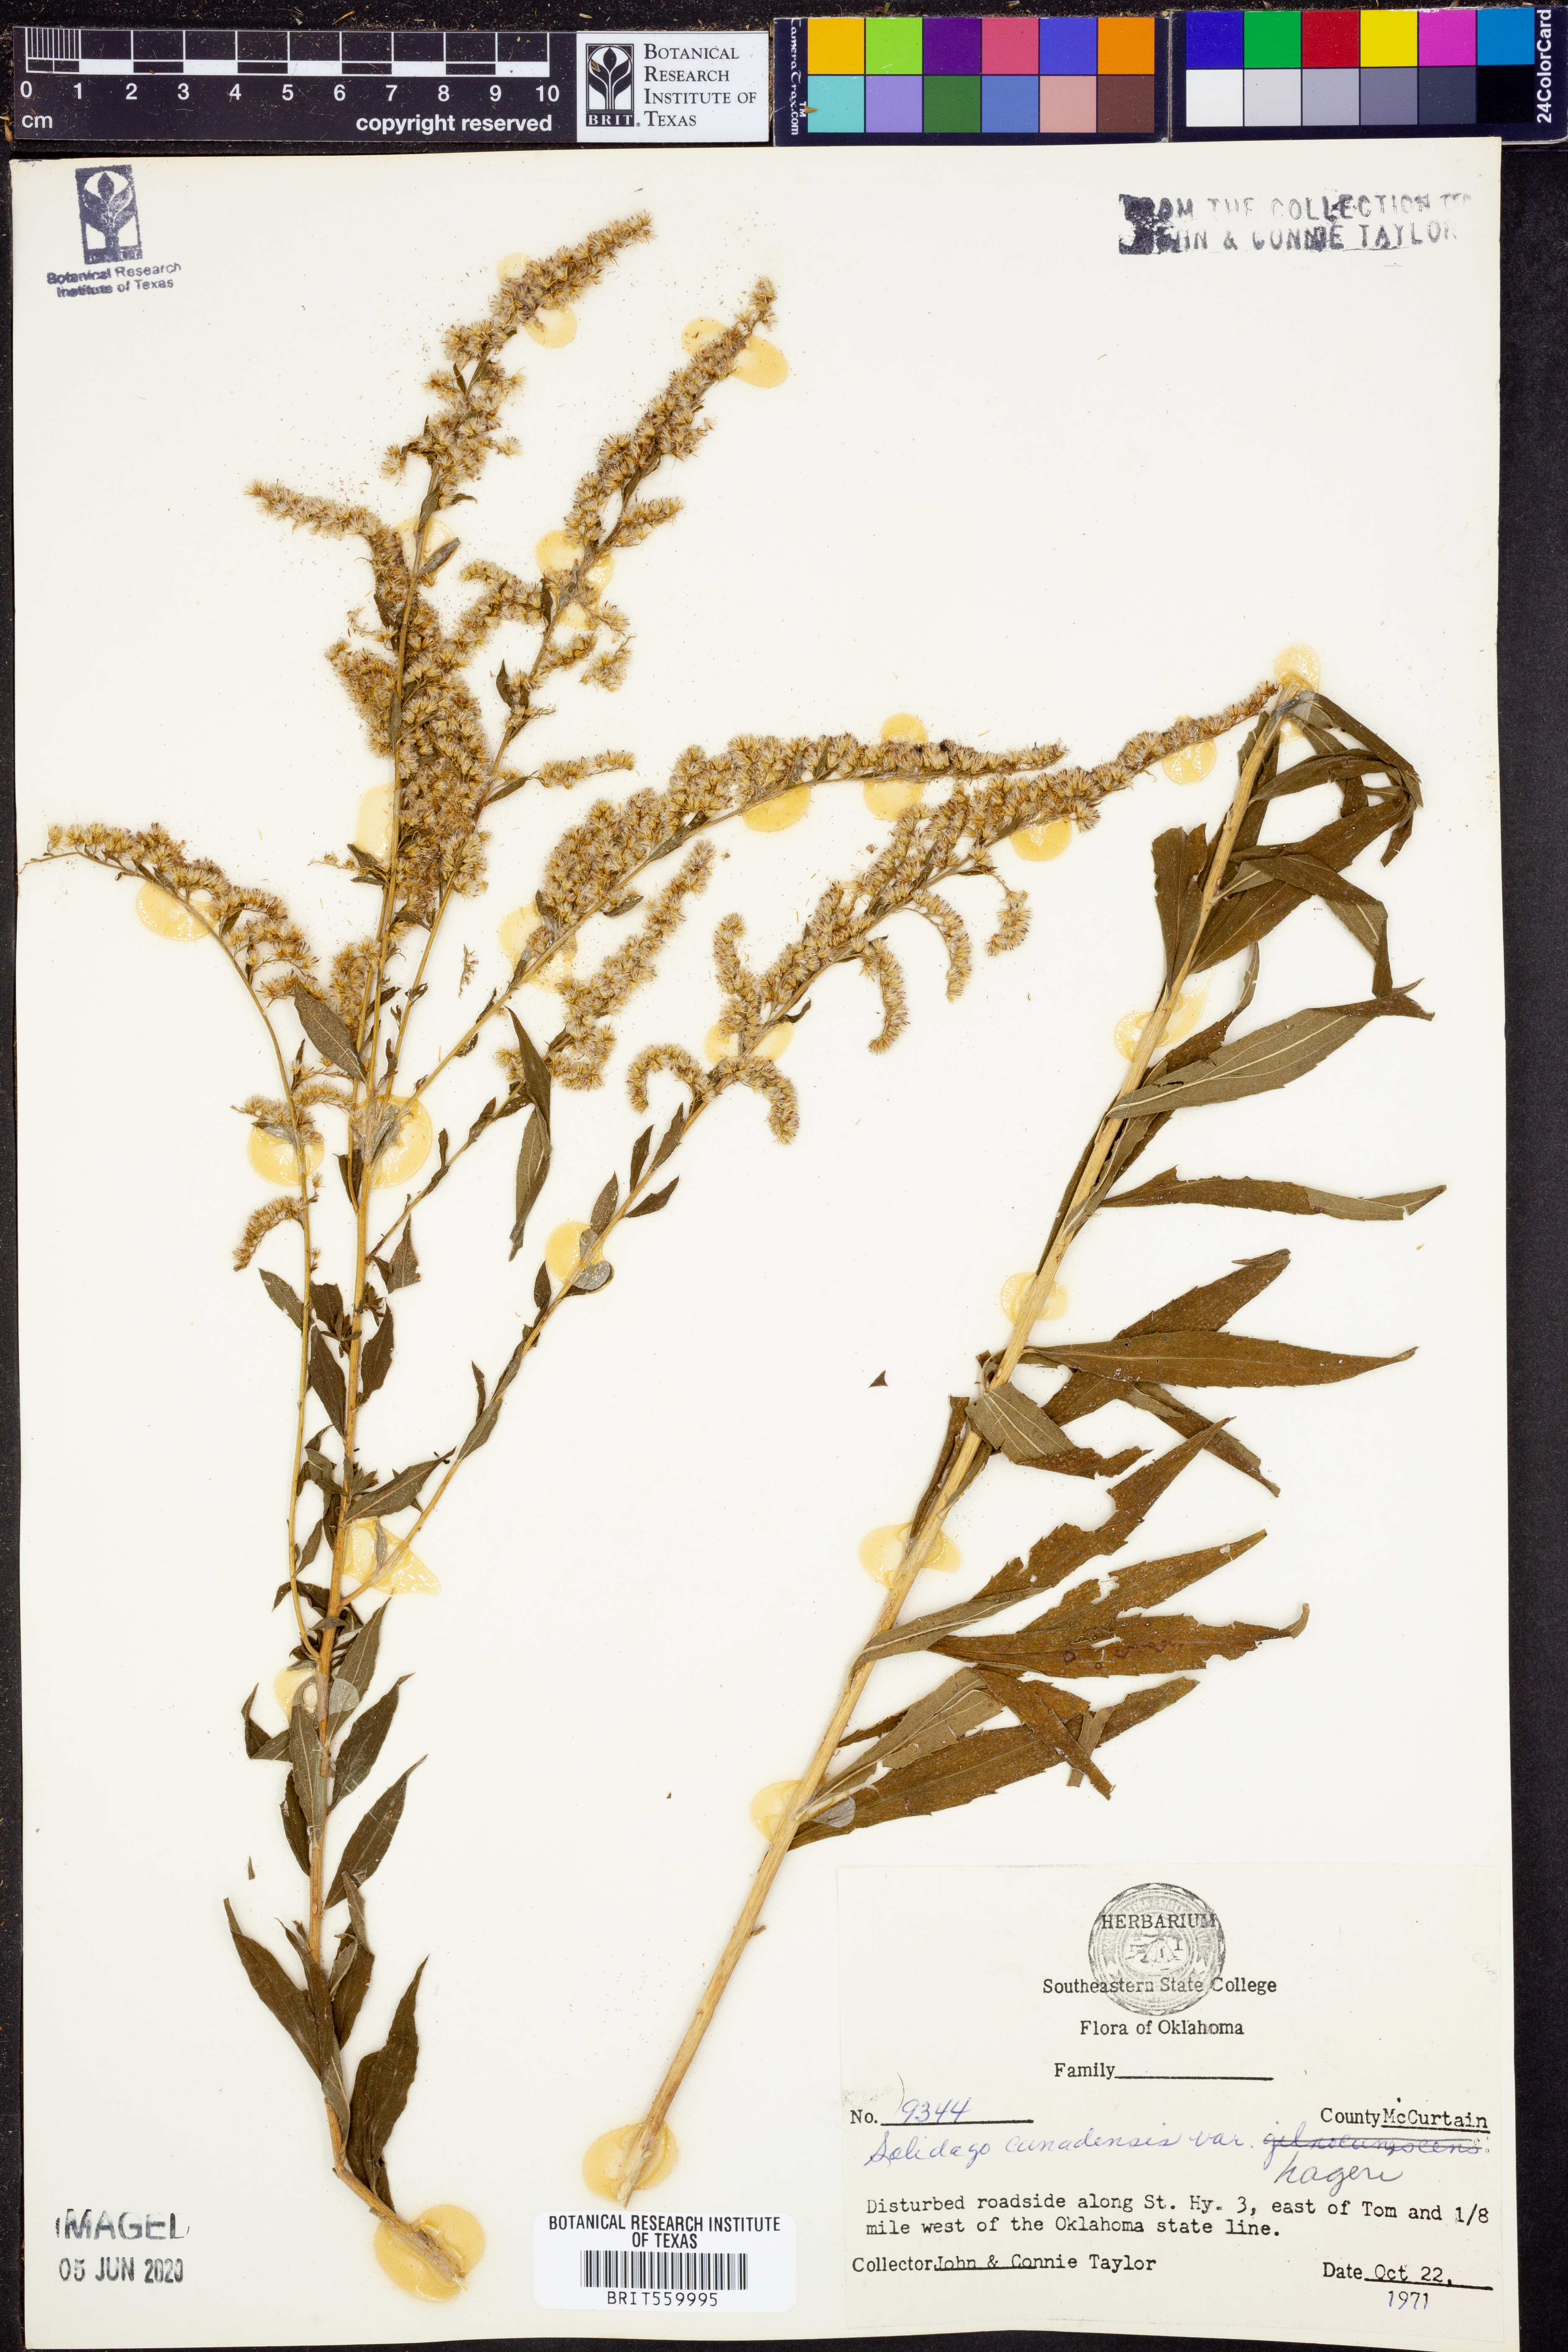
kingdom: Plantae
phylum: Tracheophyta
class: Magnoliopsida
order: Asterales
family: Asteraceae
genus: Solidago
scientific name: Solidago canadensis
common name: Canada goldenrod
